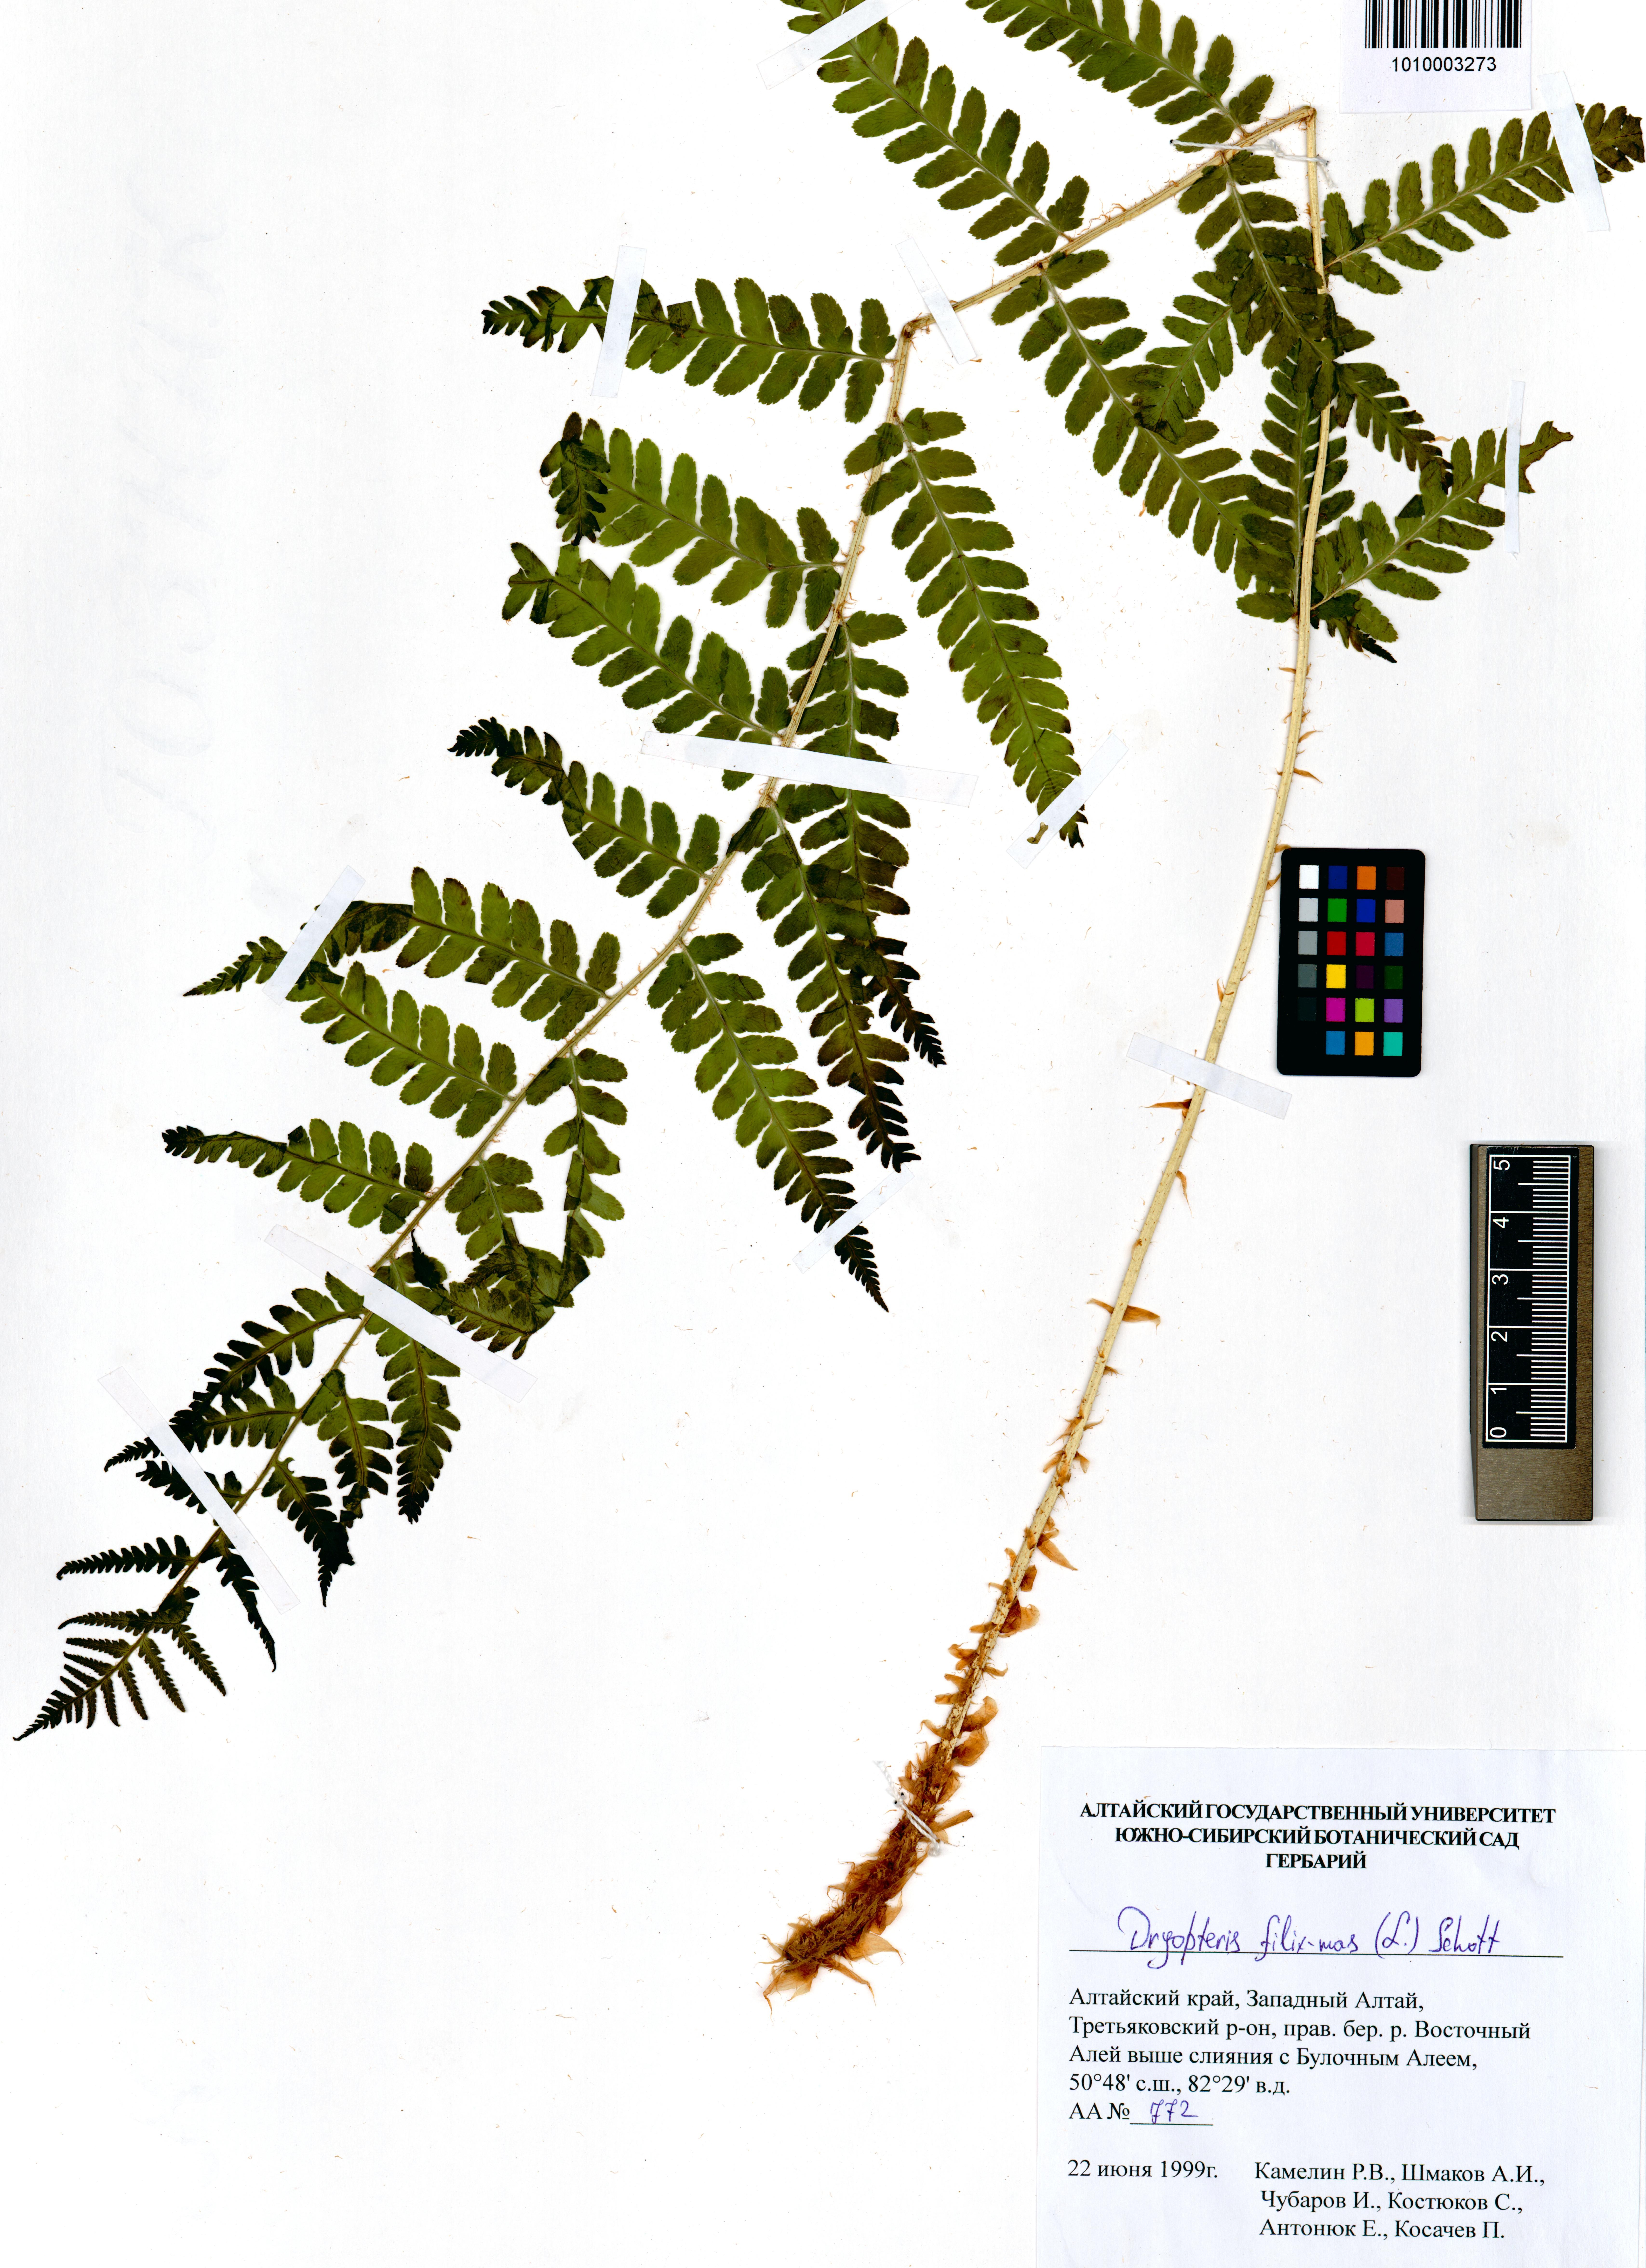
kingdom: Plantae
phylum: Tracheophyta
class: Polypodiopsida
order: Polypodiales
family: Dryopteridaceae
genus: Dryopteris
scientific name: Dryopteris filix-mas
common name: Male fern
